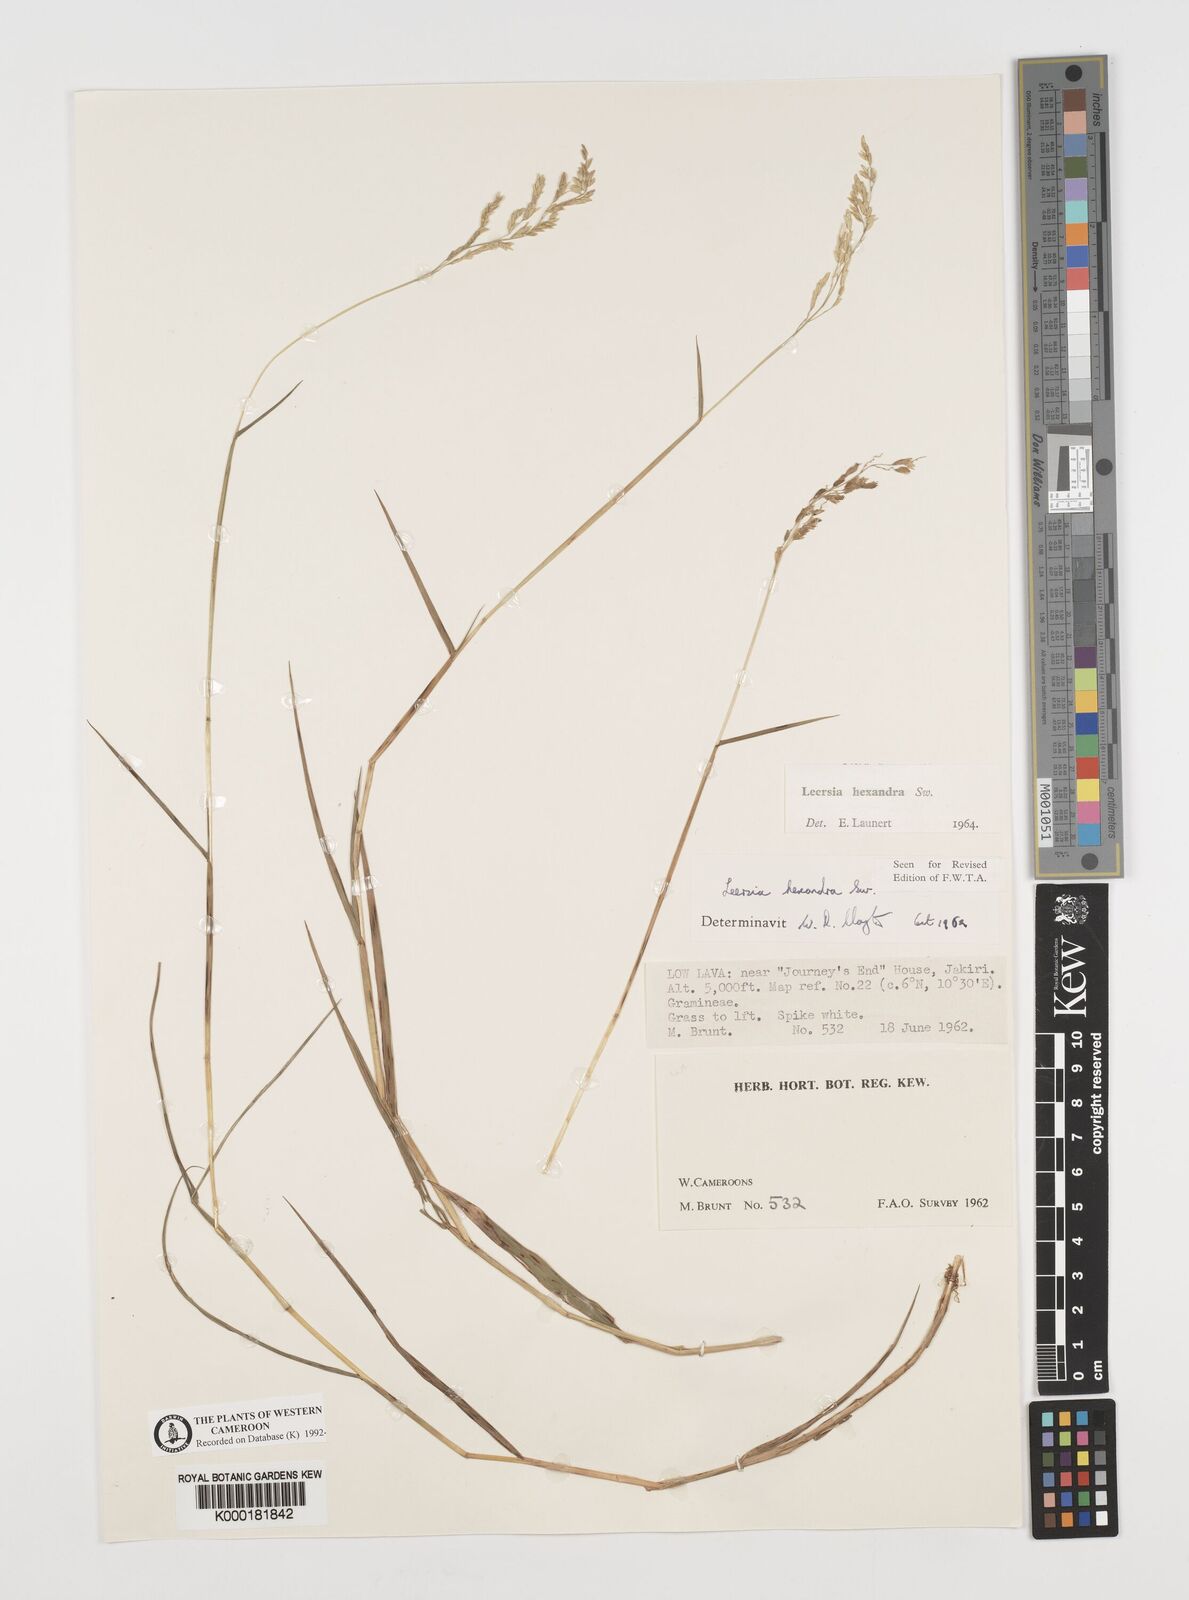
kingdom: Plantae
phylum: Tracheophyta
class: Liliopsida
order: Poales
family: Poaceae
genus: Leersia
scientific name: Leersia hexandra
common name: Southern cut grass
